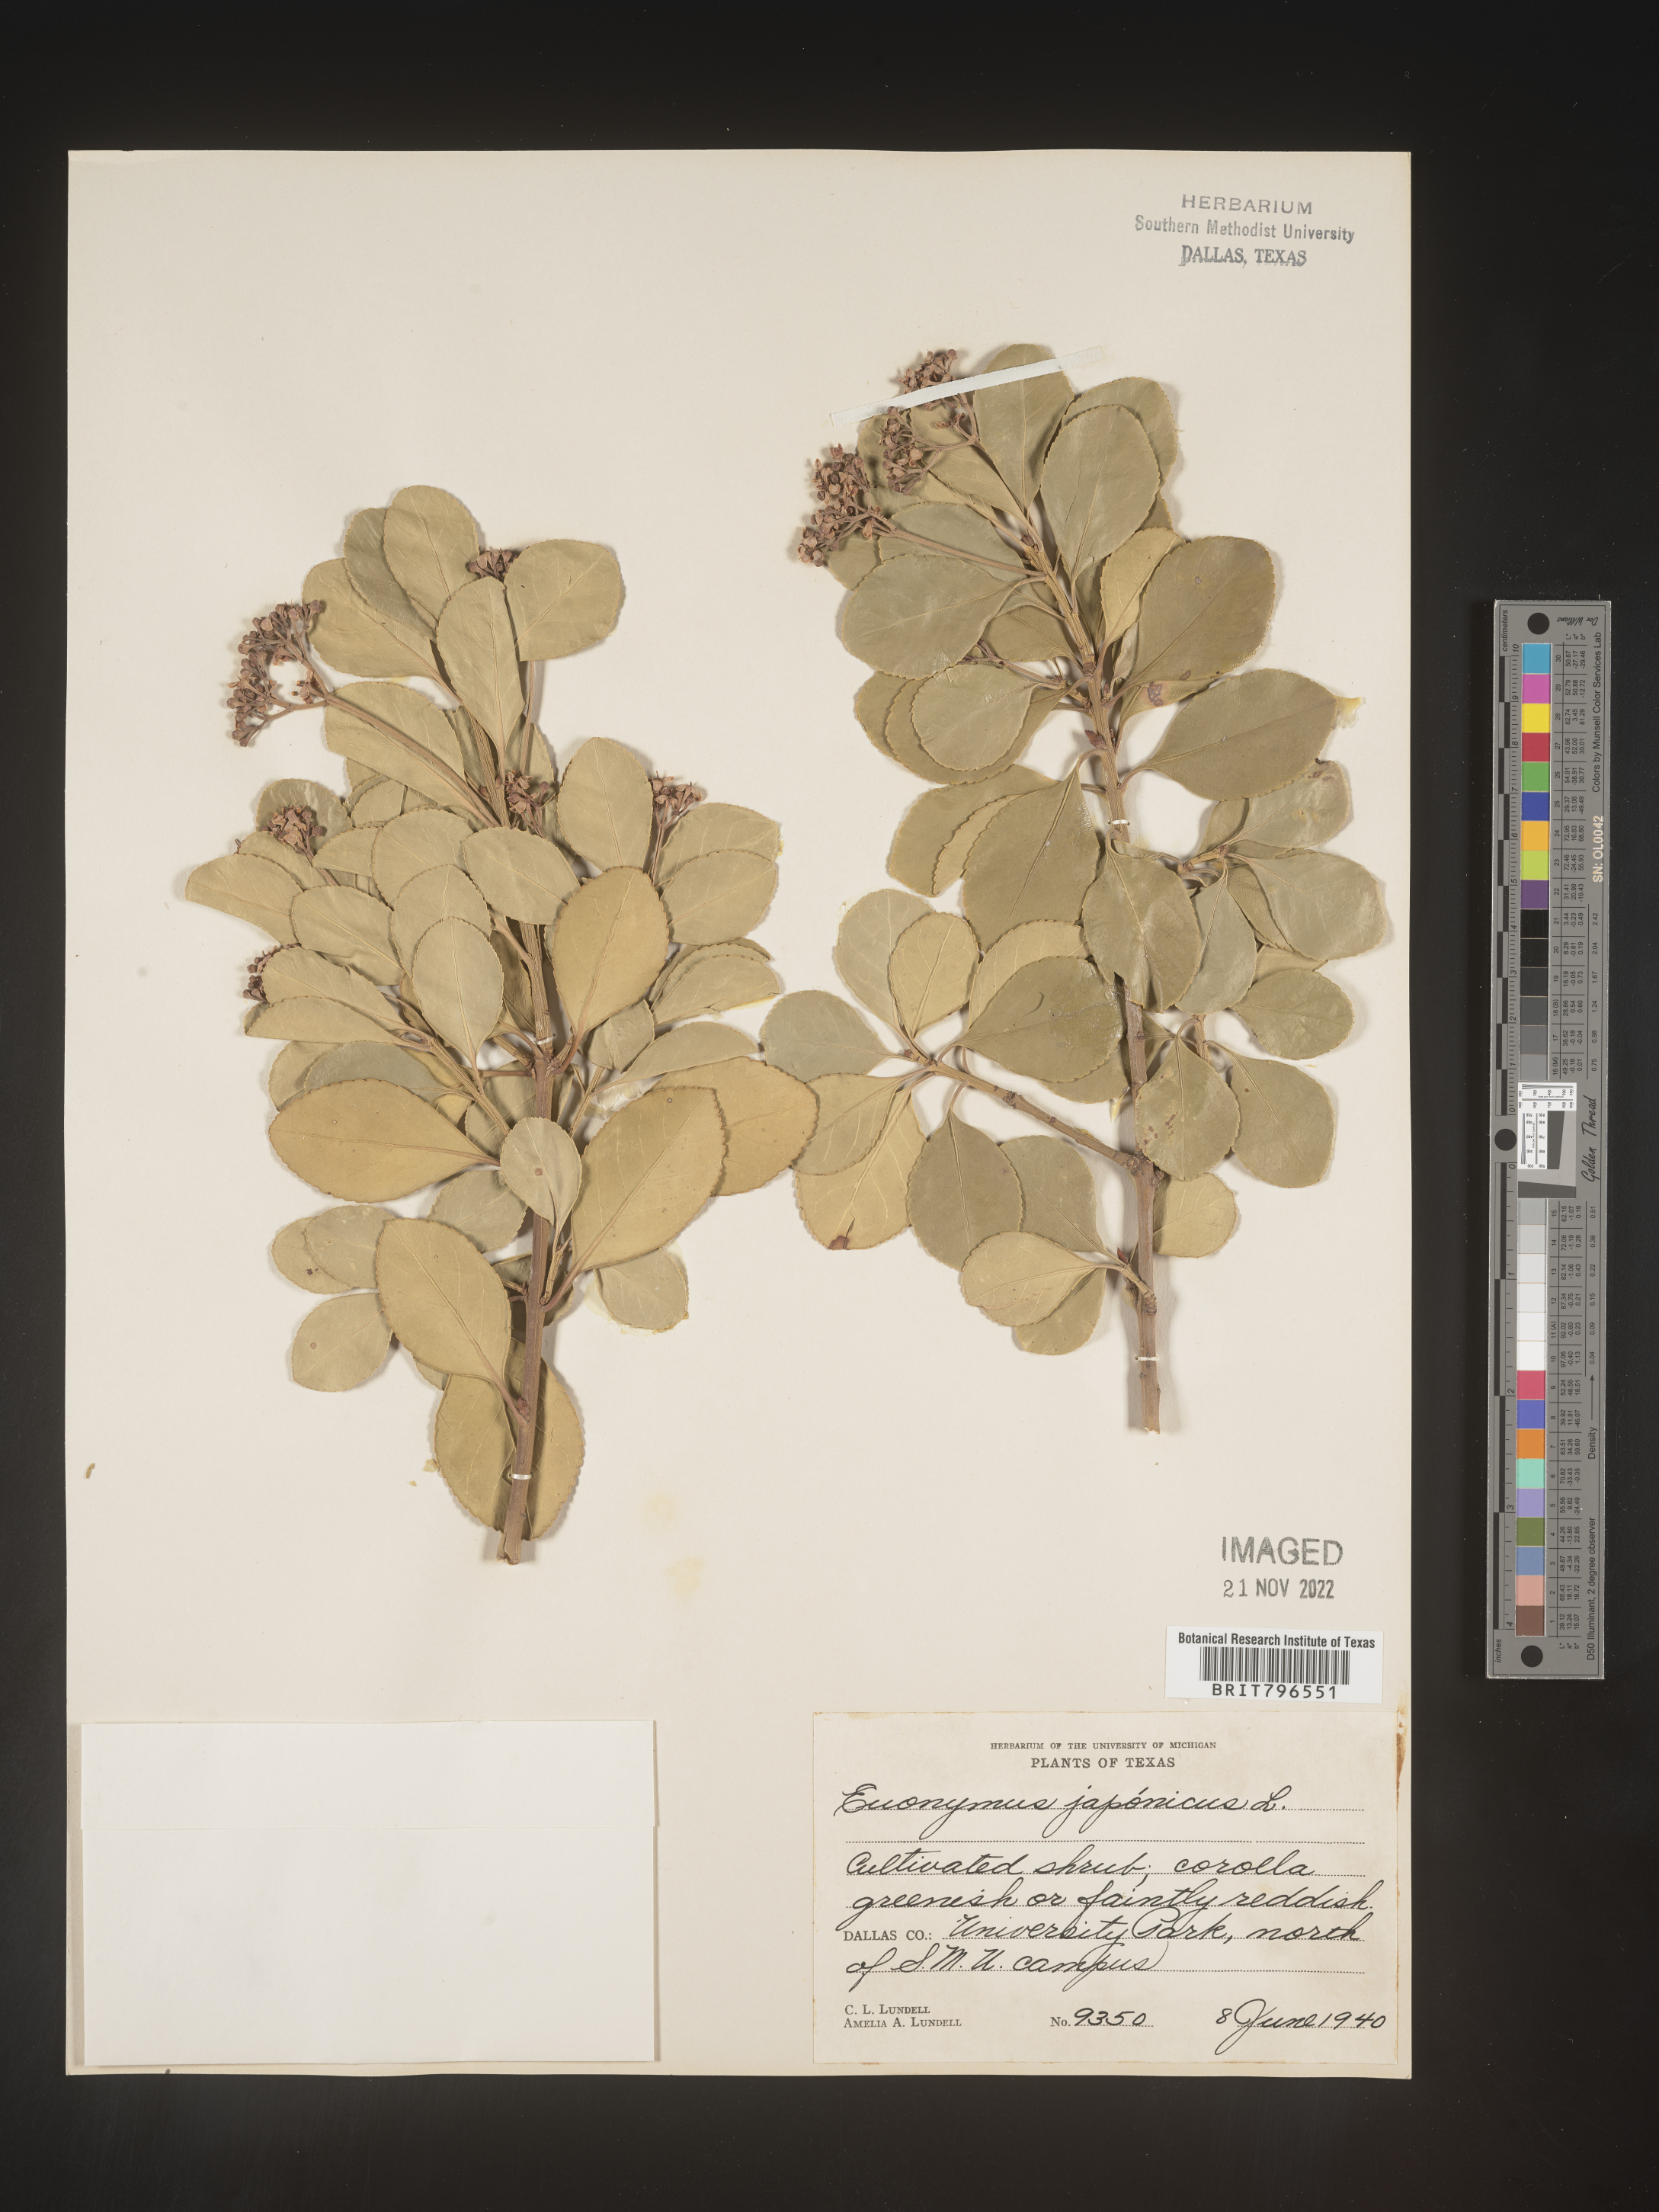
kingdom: Plantae
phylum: Tracheophyta
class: Magnoliopsida
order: Celastrales
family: Celastraceae
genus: Euonymus
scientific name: Euonymus
